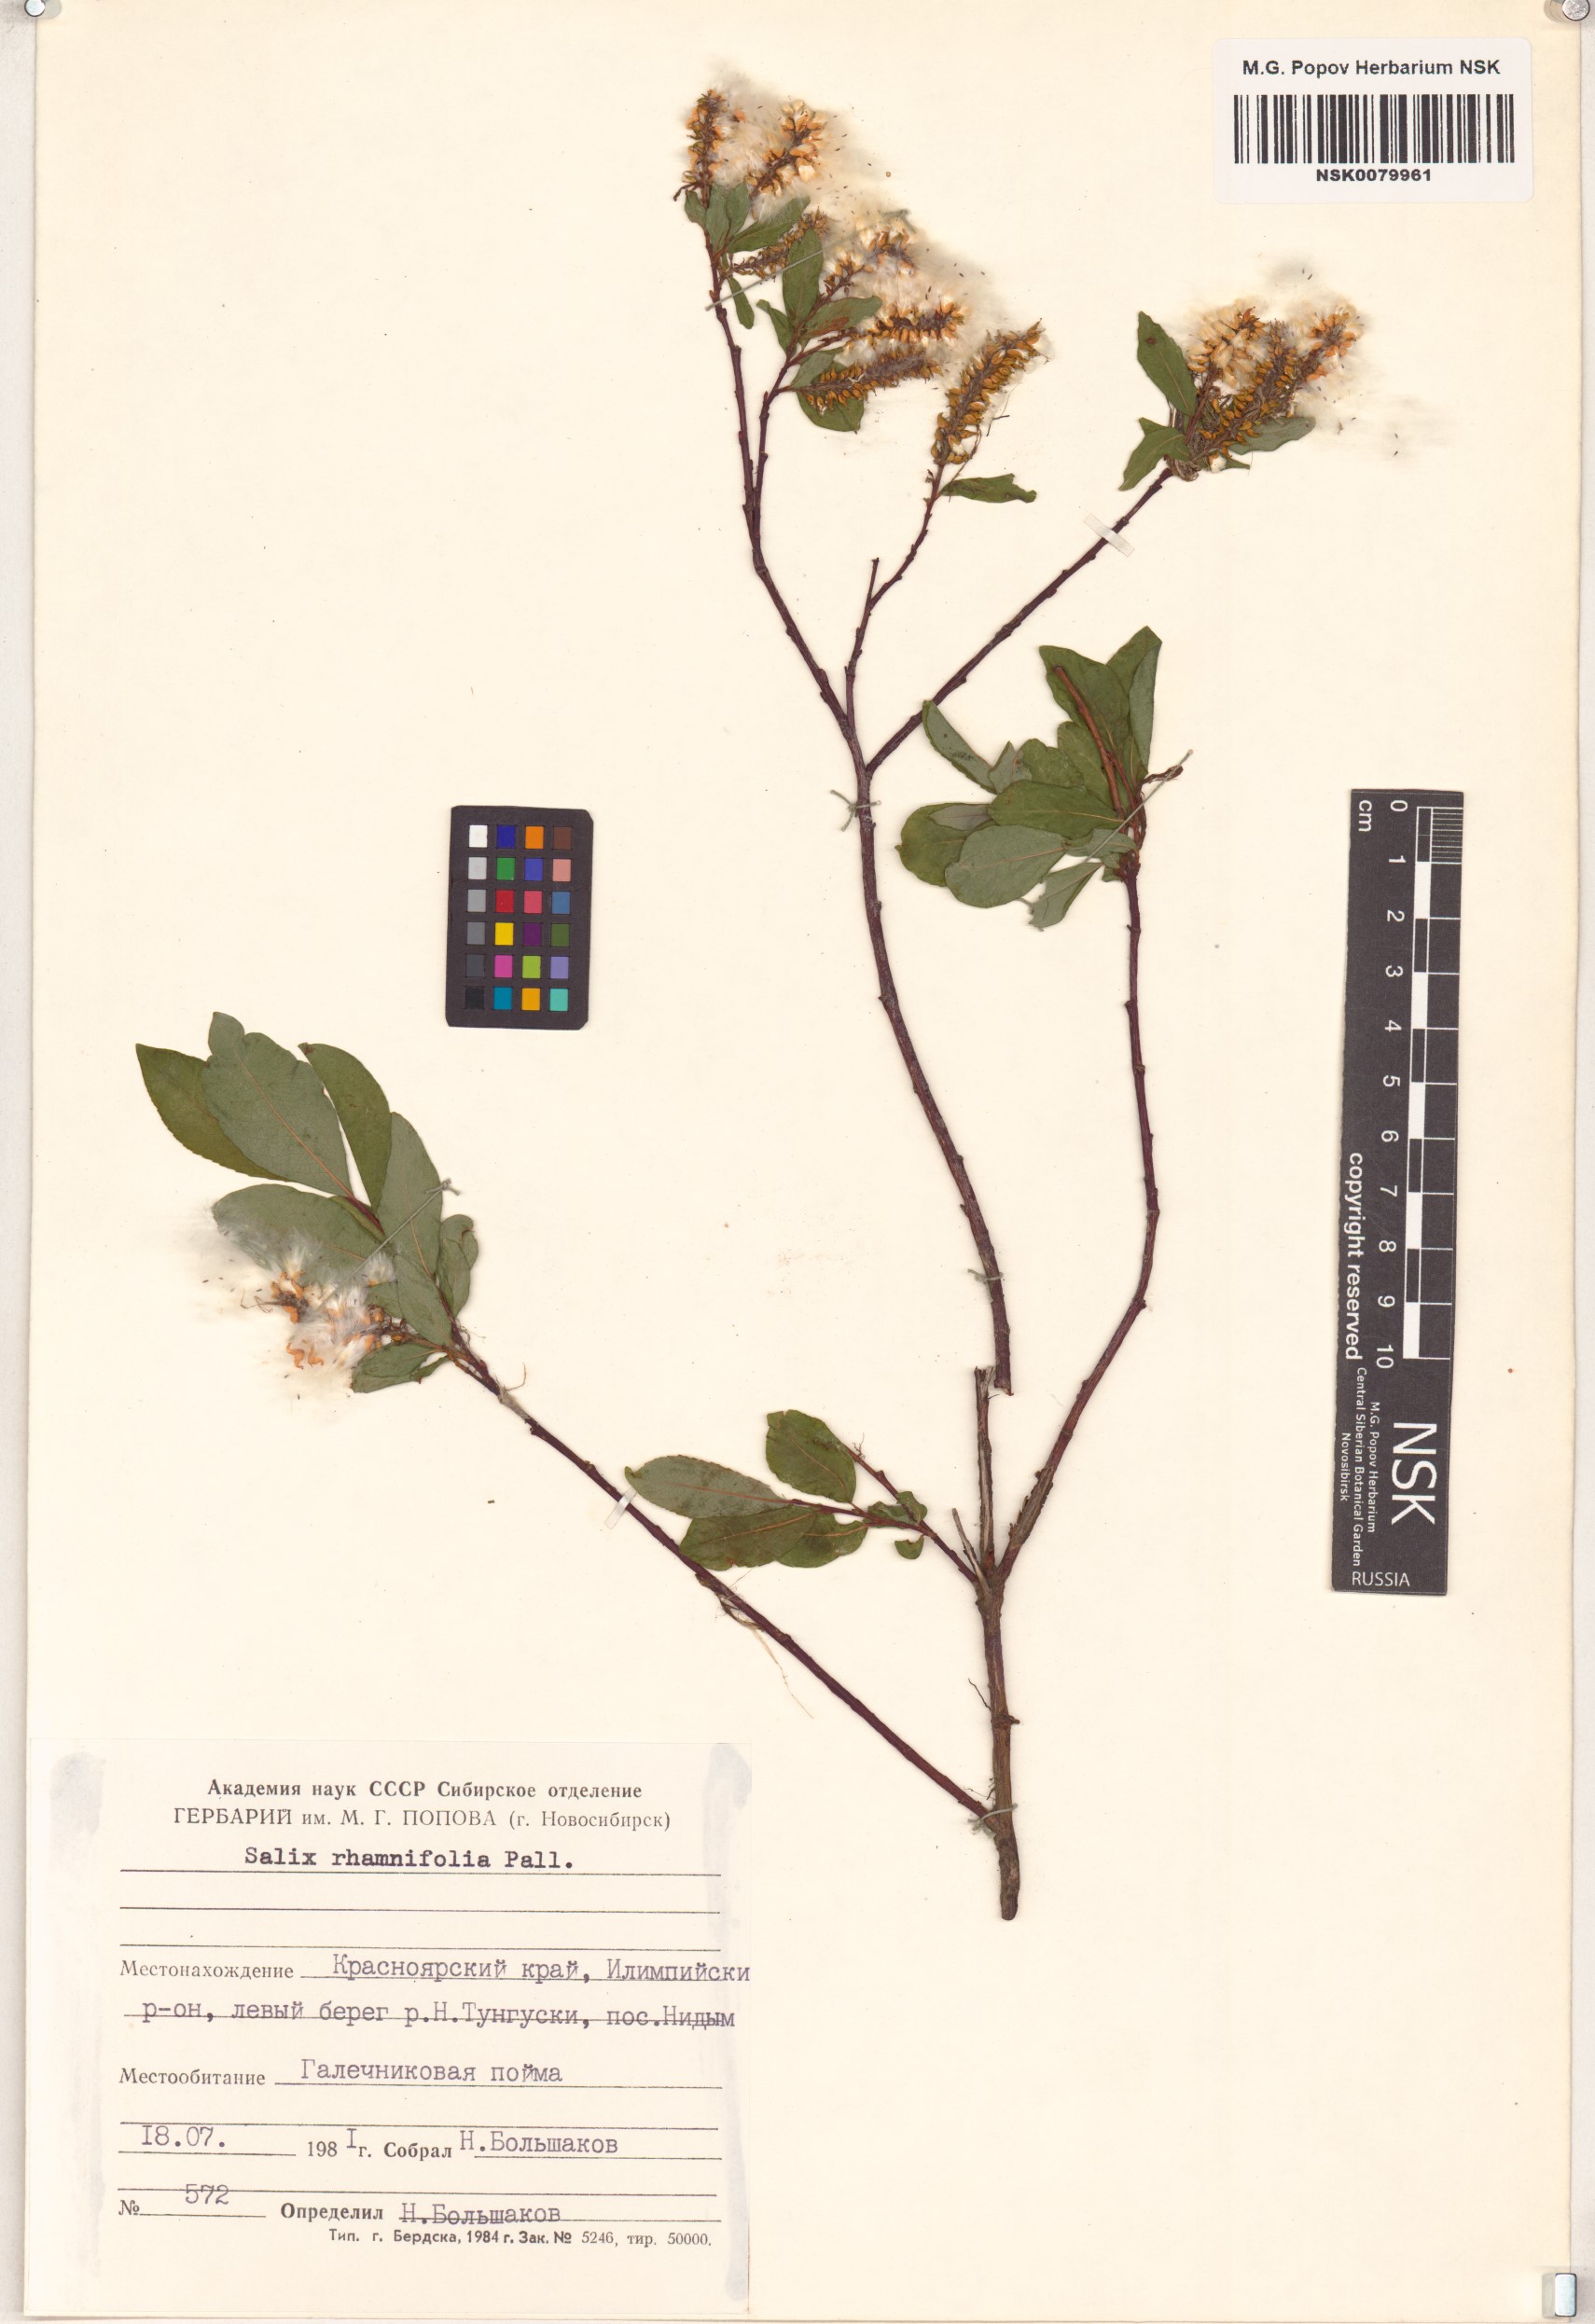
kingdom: Plantae
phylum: Tracheophyta
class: Magnoliopsida
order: Malpighiales
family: Salicaceae
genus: Salix
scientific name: Salix rhamnifolia
